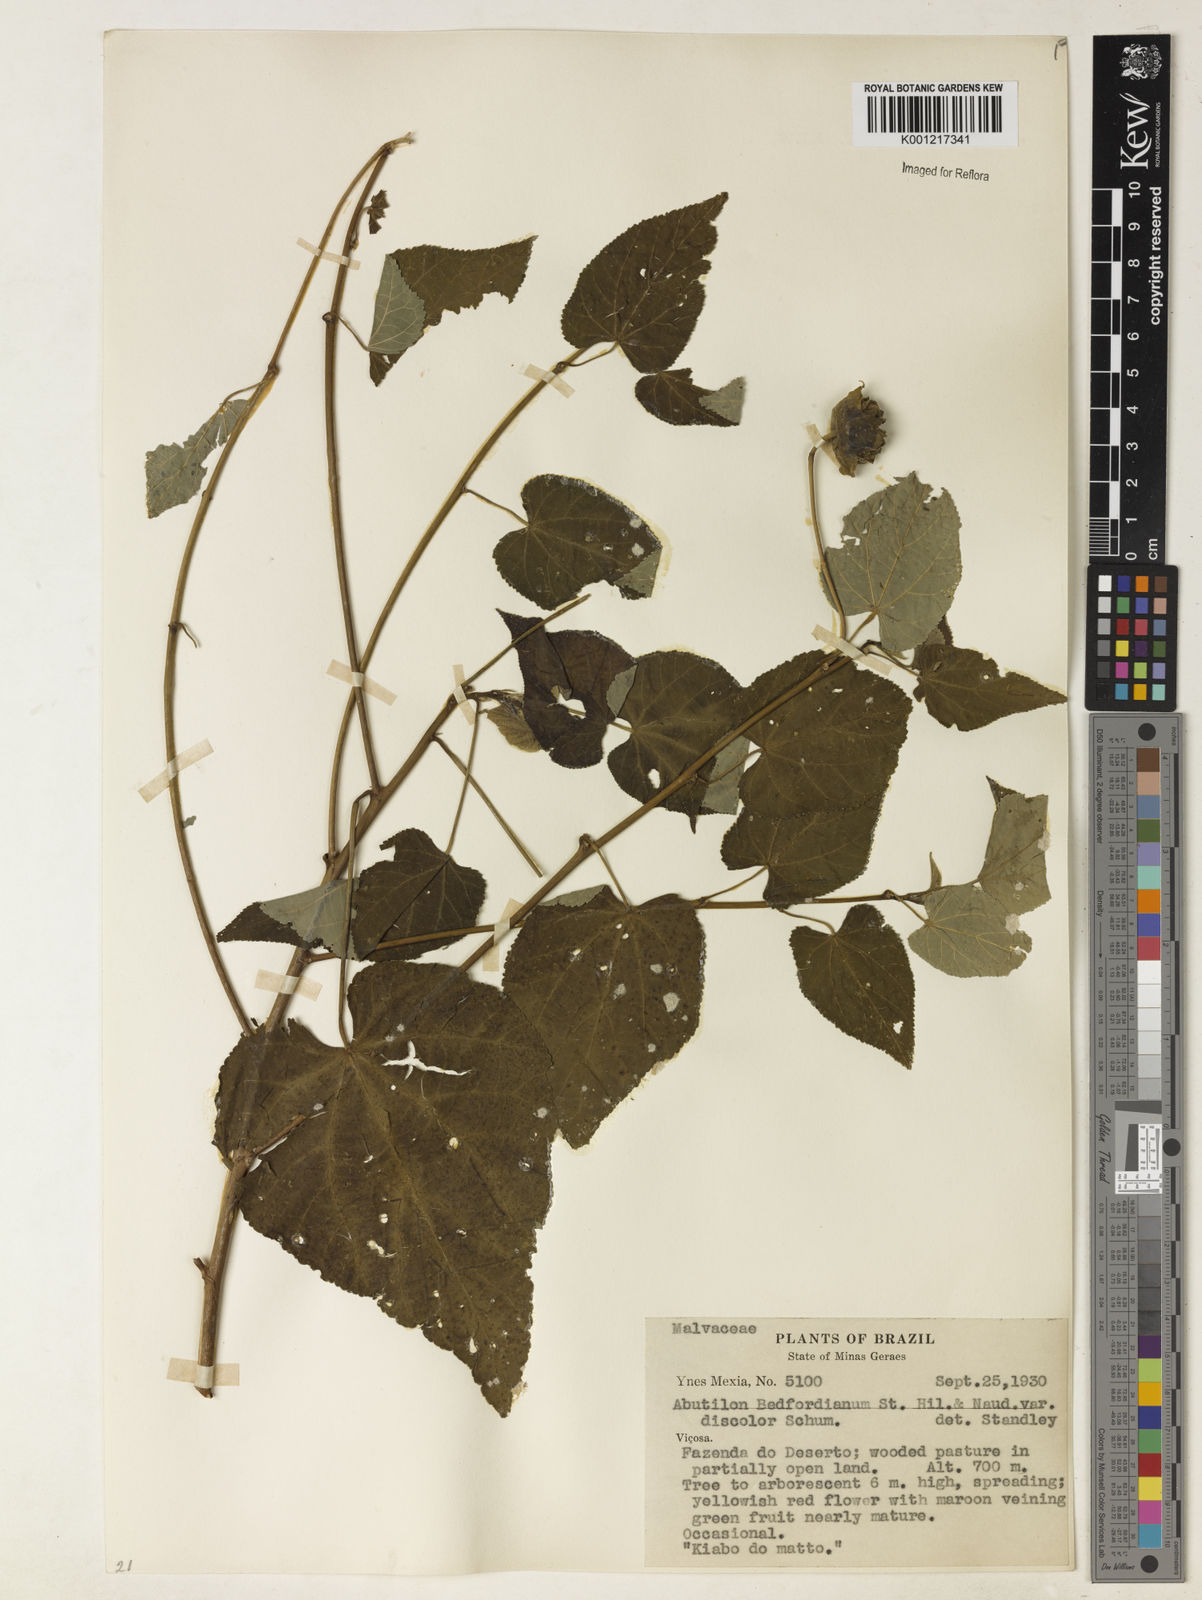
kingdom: Plantae
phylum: Tracheophyta
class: Magnoliopsida
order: Malvales
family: Malvaceae
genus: Callianthe
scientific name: Callianthe bedfordiana
